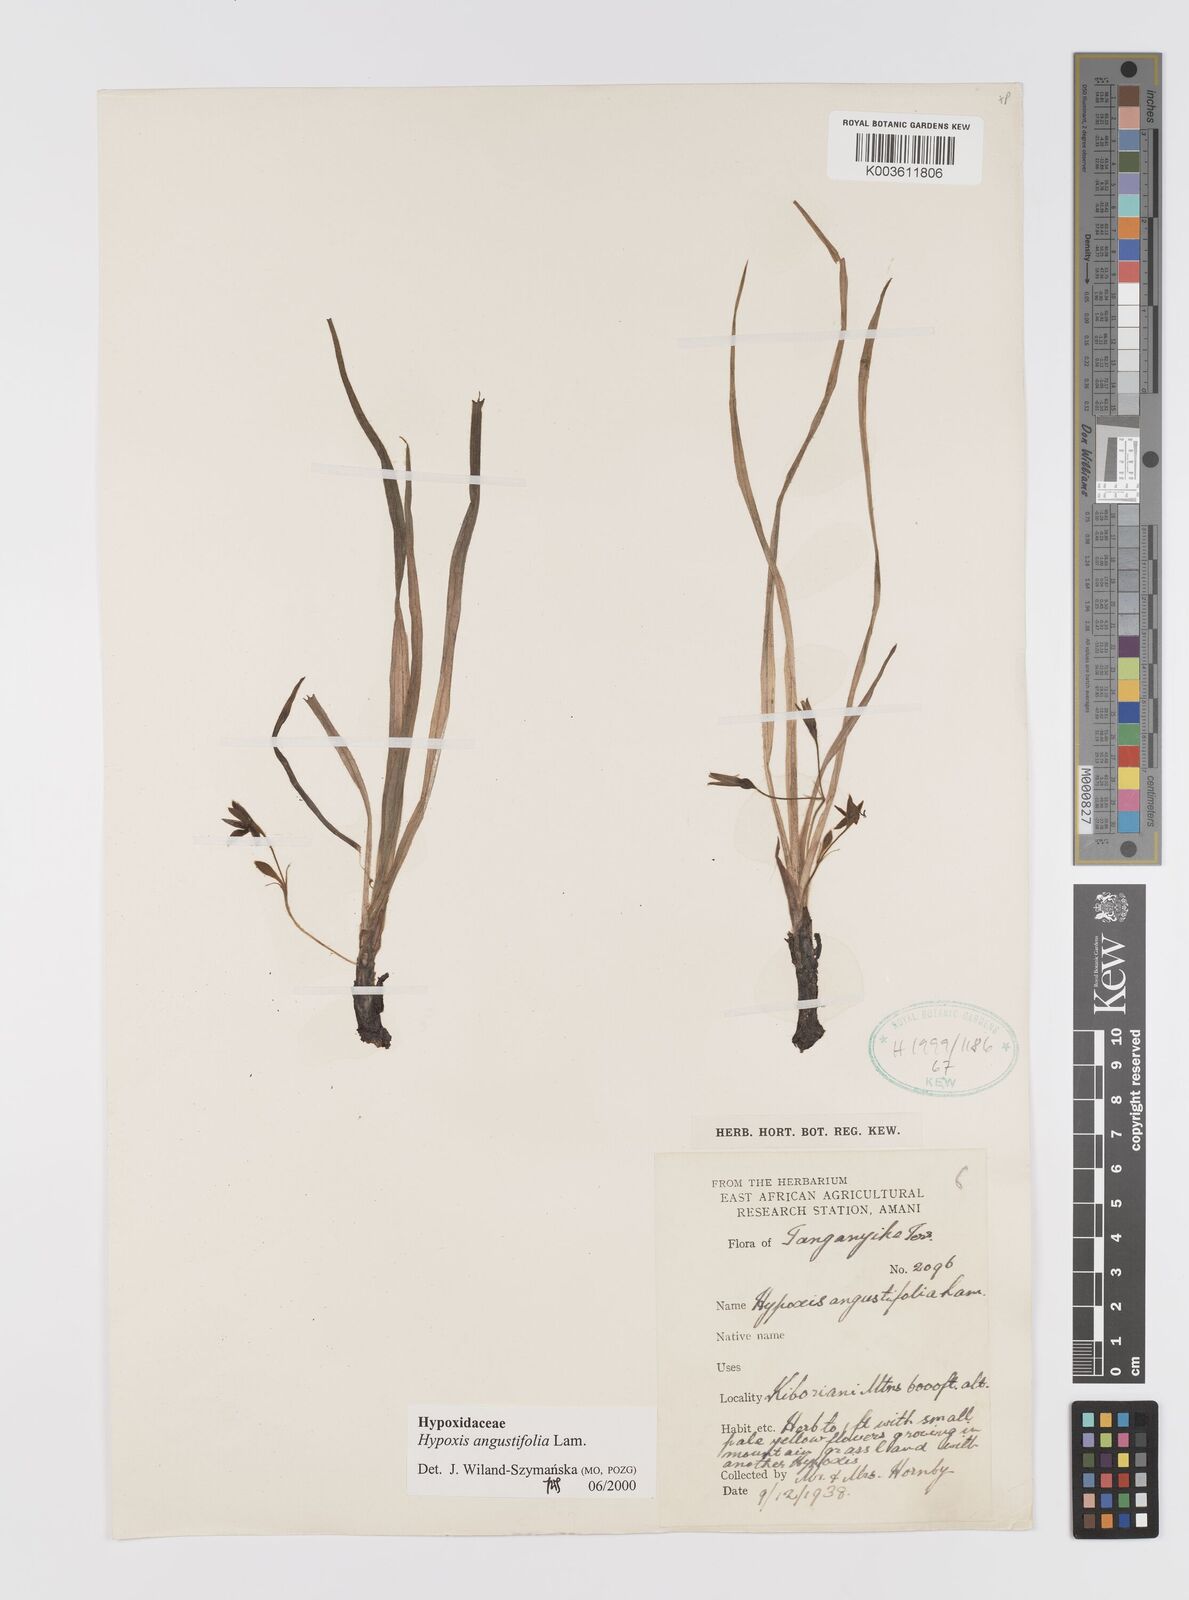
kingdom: Plantae
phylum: Tracheophyta
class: Liliopsida
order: Asparagales
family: Hypoxidaceae
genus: Hypoxis
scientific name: Hypoxis angustifolia
